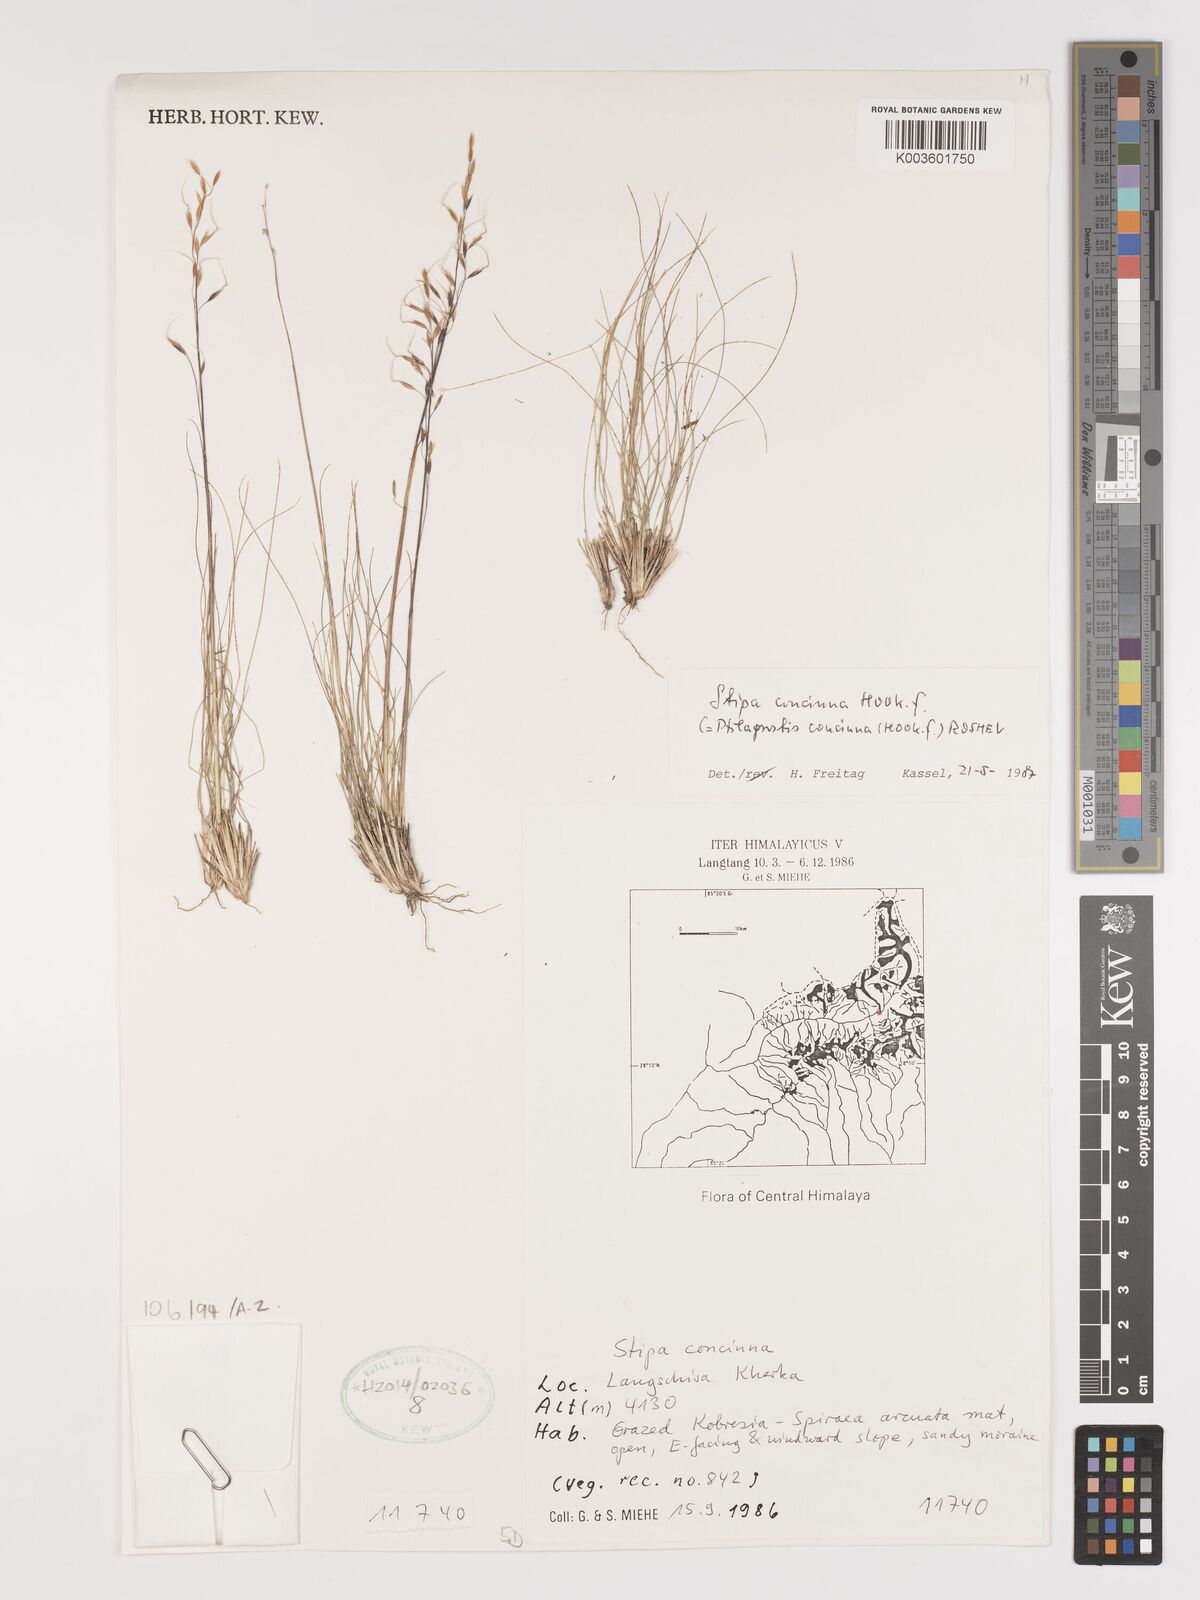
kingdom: Plantae
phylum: Tracheophyta
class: Liliopsida
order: Poales
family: Poaceae
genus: Ptilagrostis
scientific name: Ptilagrostis concinna
